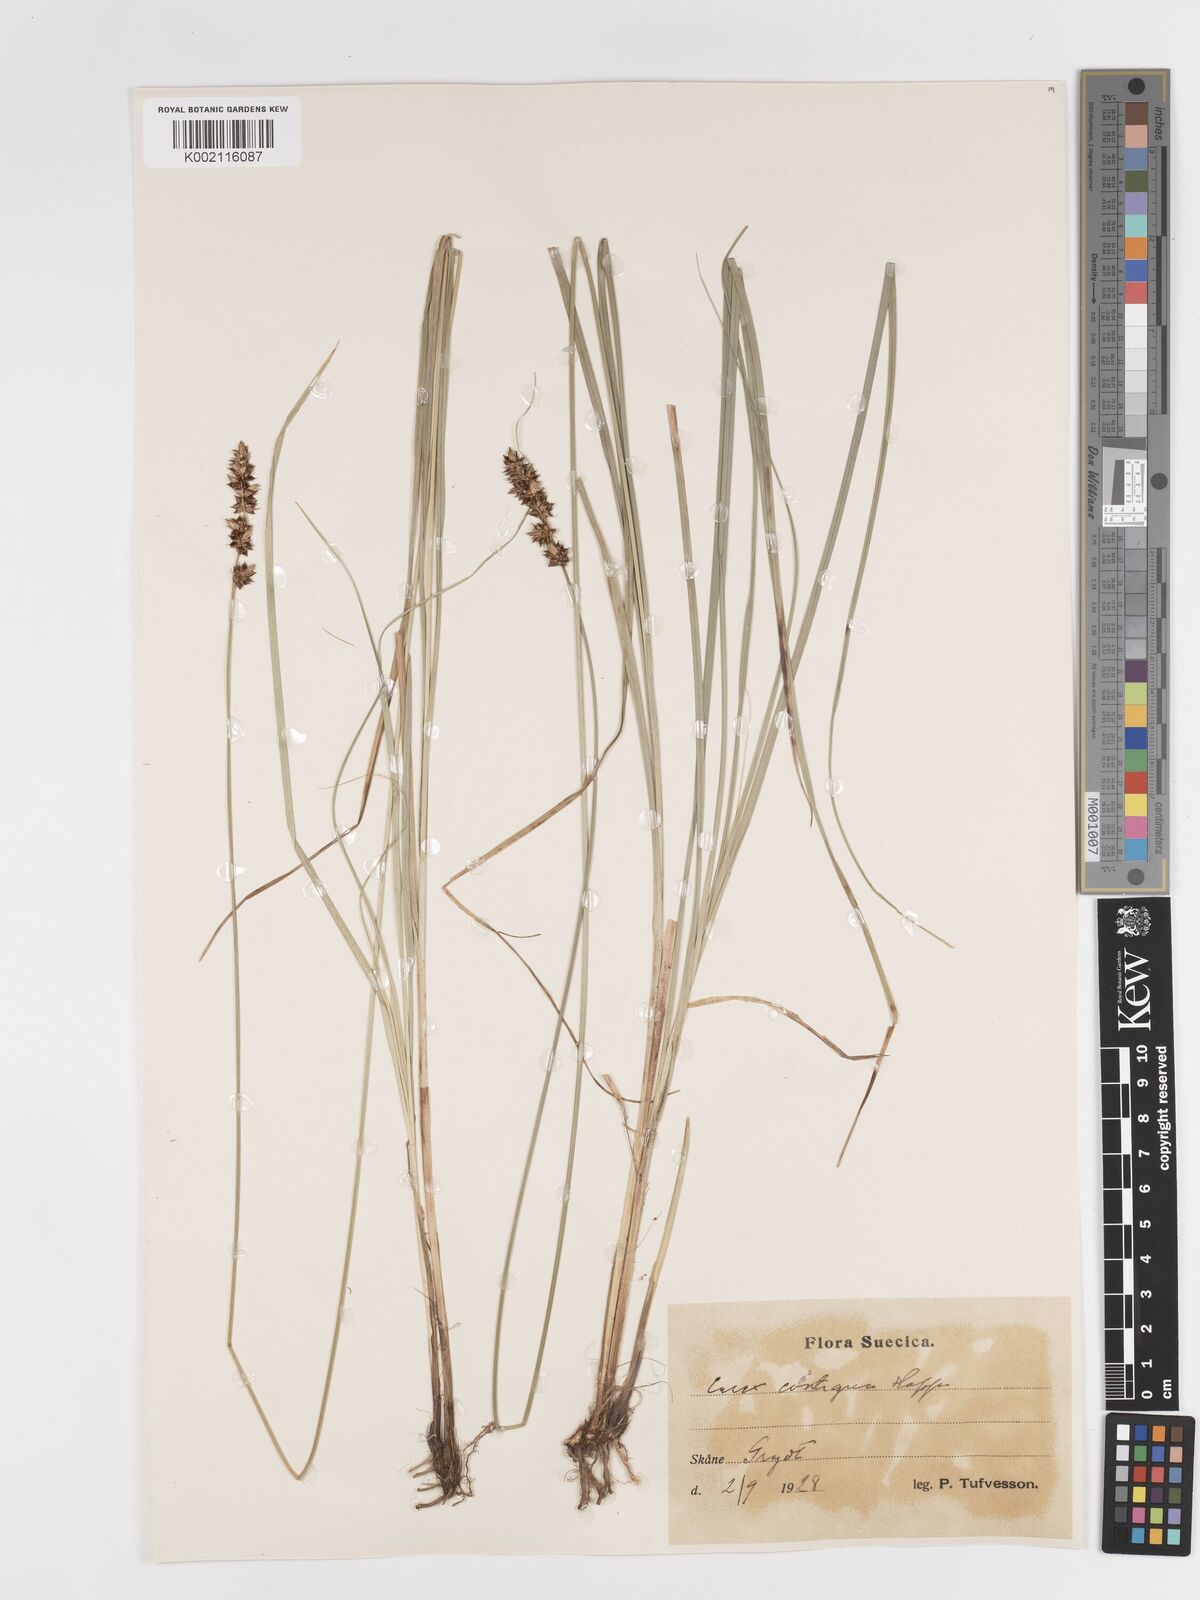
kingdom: Plantae
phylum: Tracheophyta
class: Liliopsida
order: Poales
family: Cyperaceae
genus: Carex
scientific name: Carex spicata
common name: Spiked sedge
